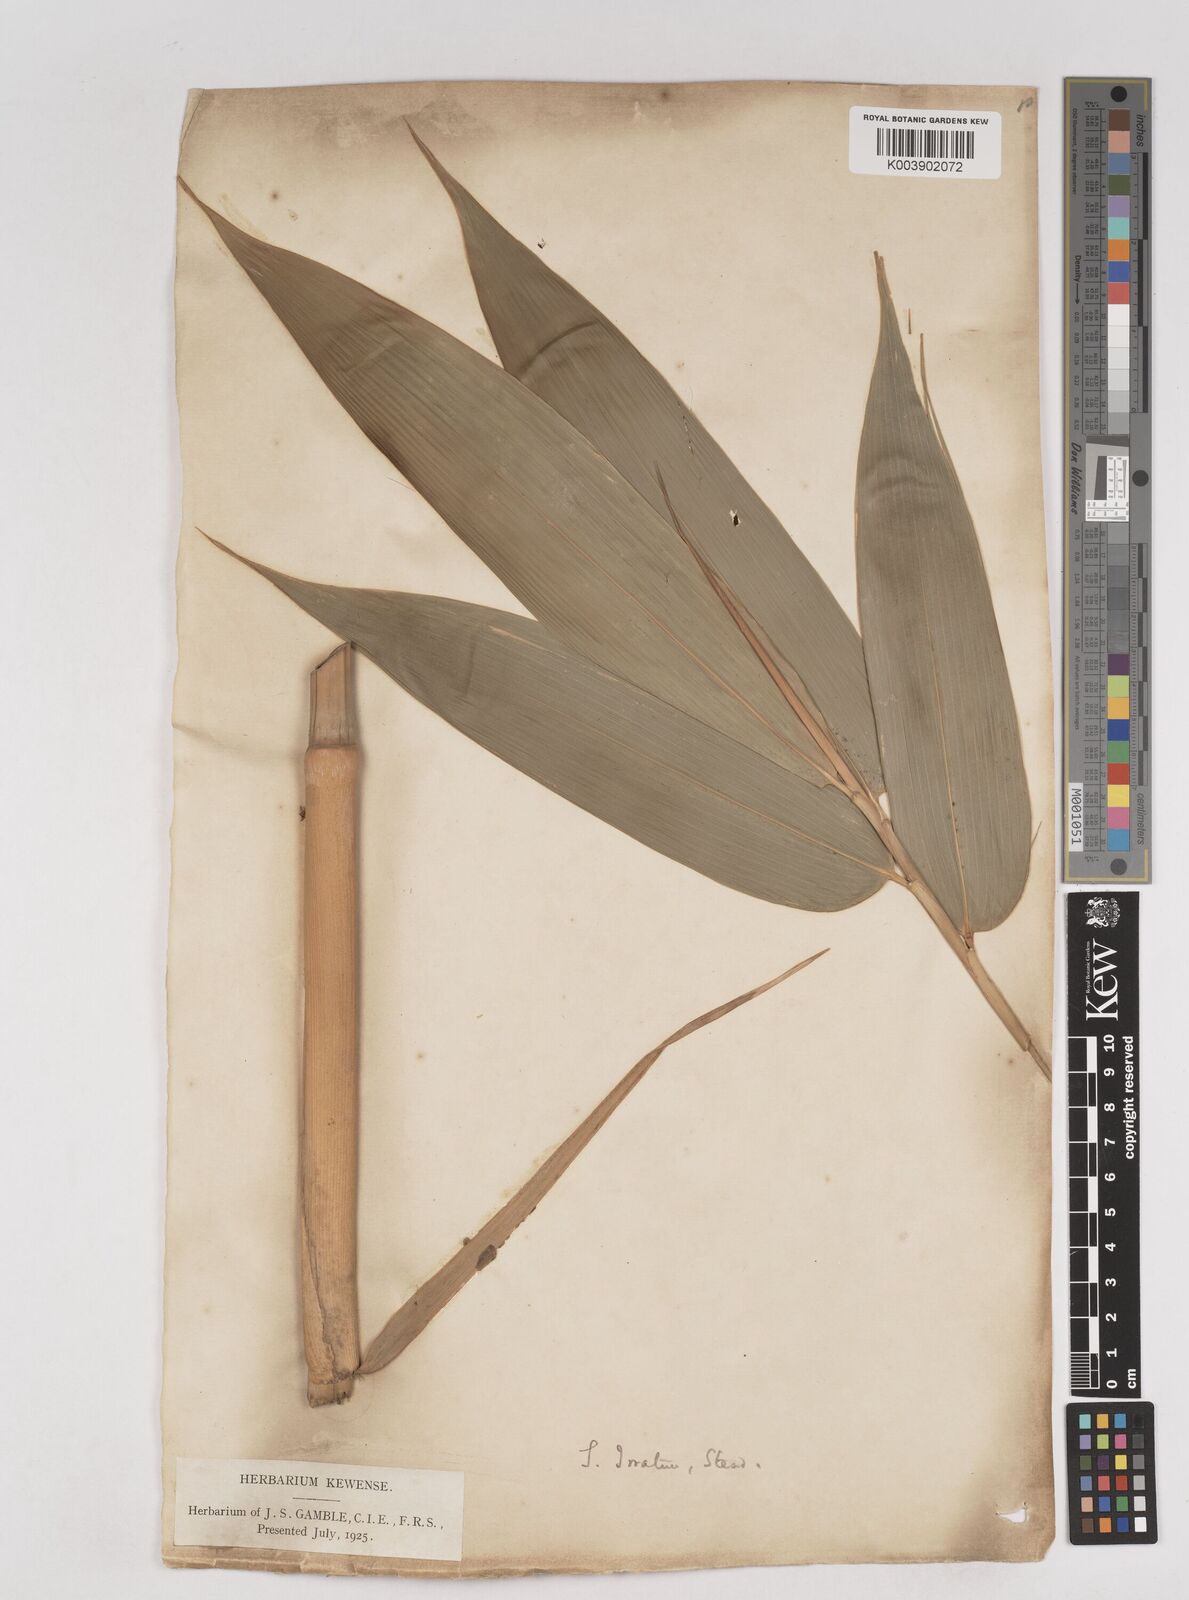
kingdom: Plantae
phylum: Tracheophyta
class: Liliopsida
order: Poales
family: Poaceae
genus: Schizostachyum
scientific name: Schizostachyum iraten
